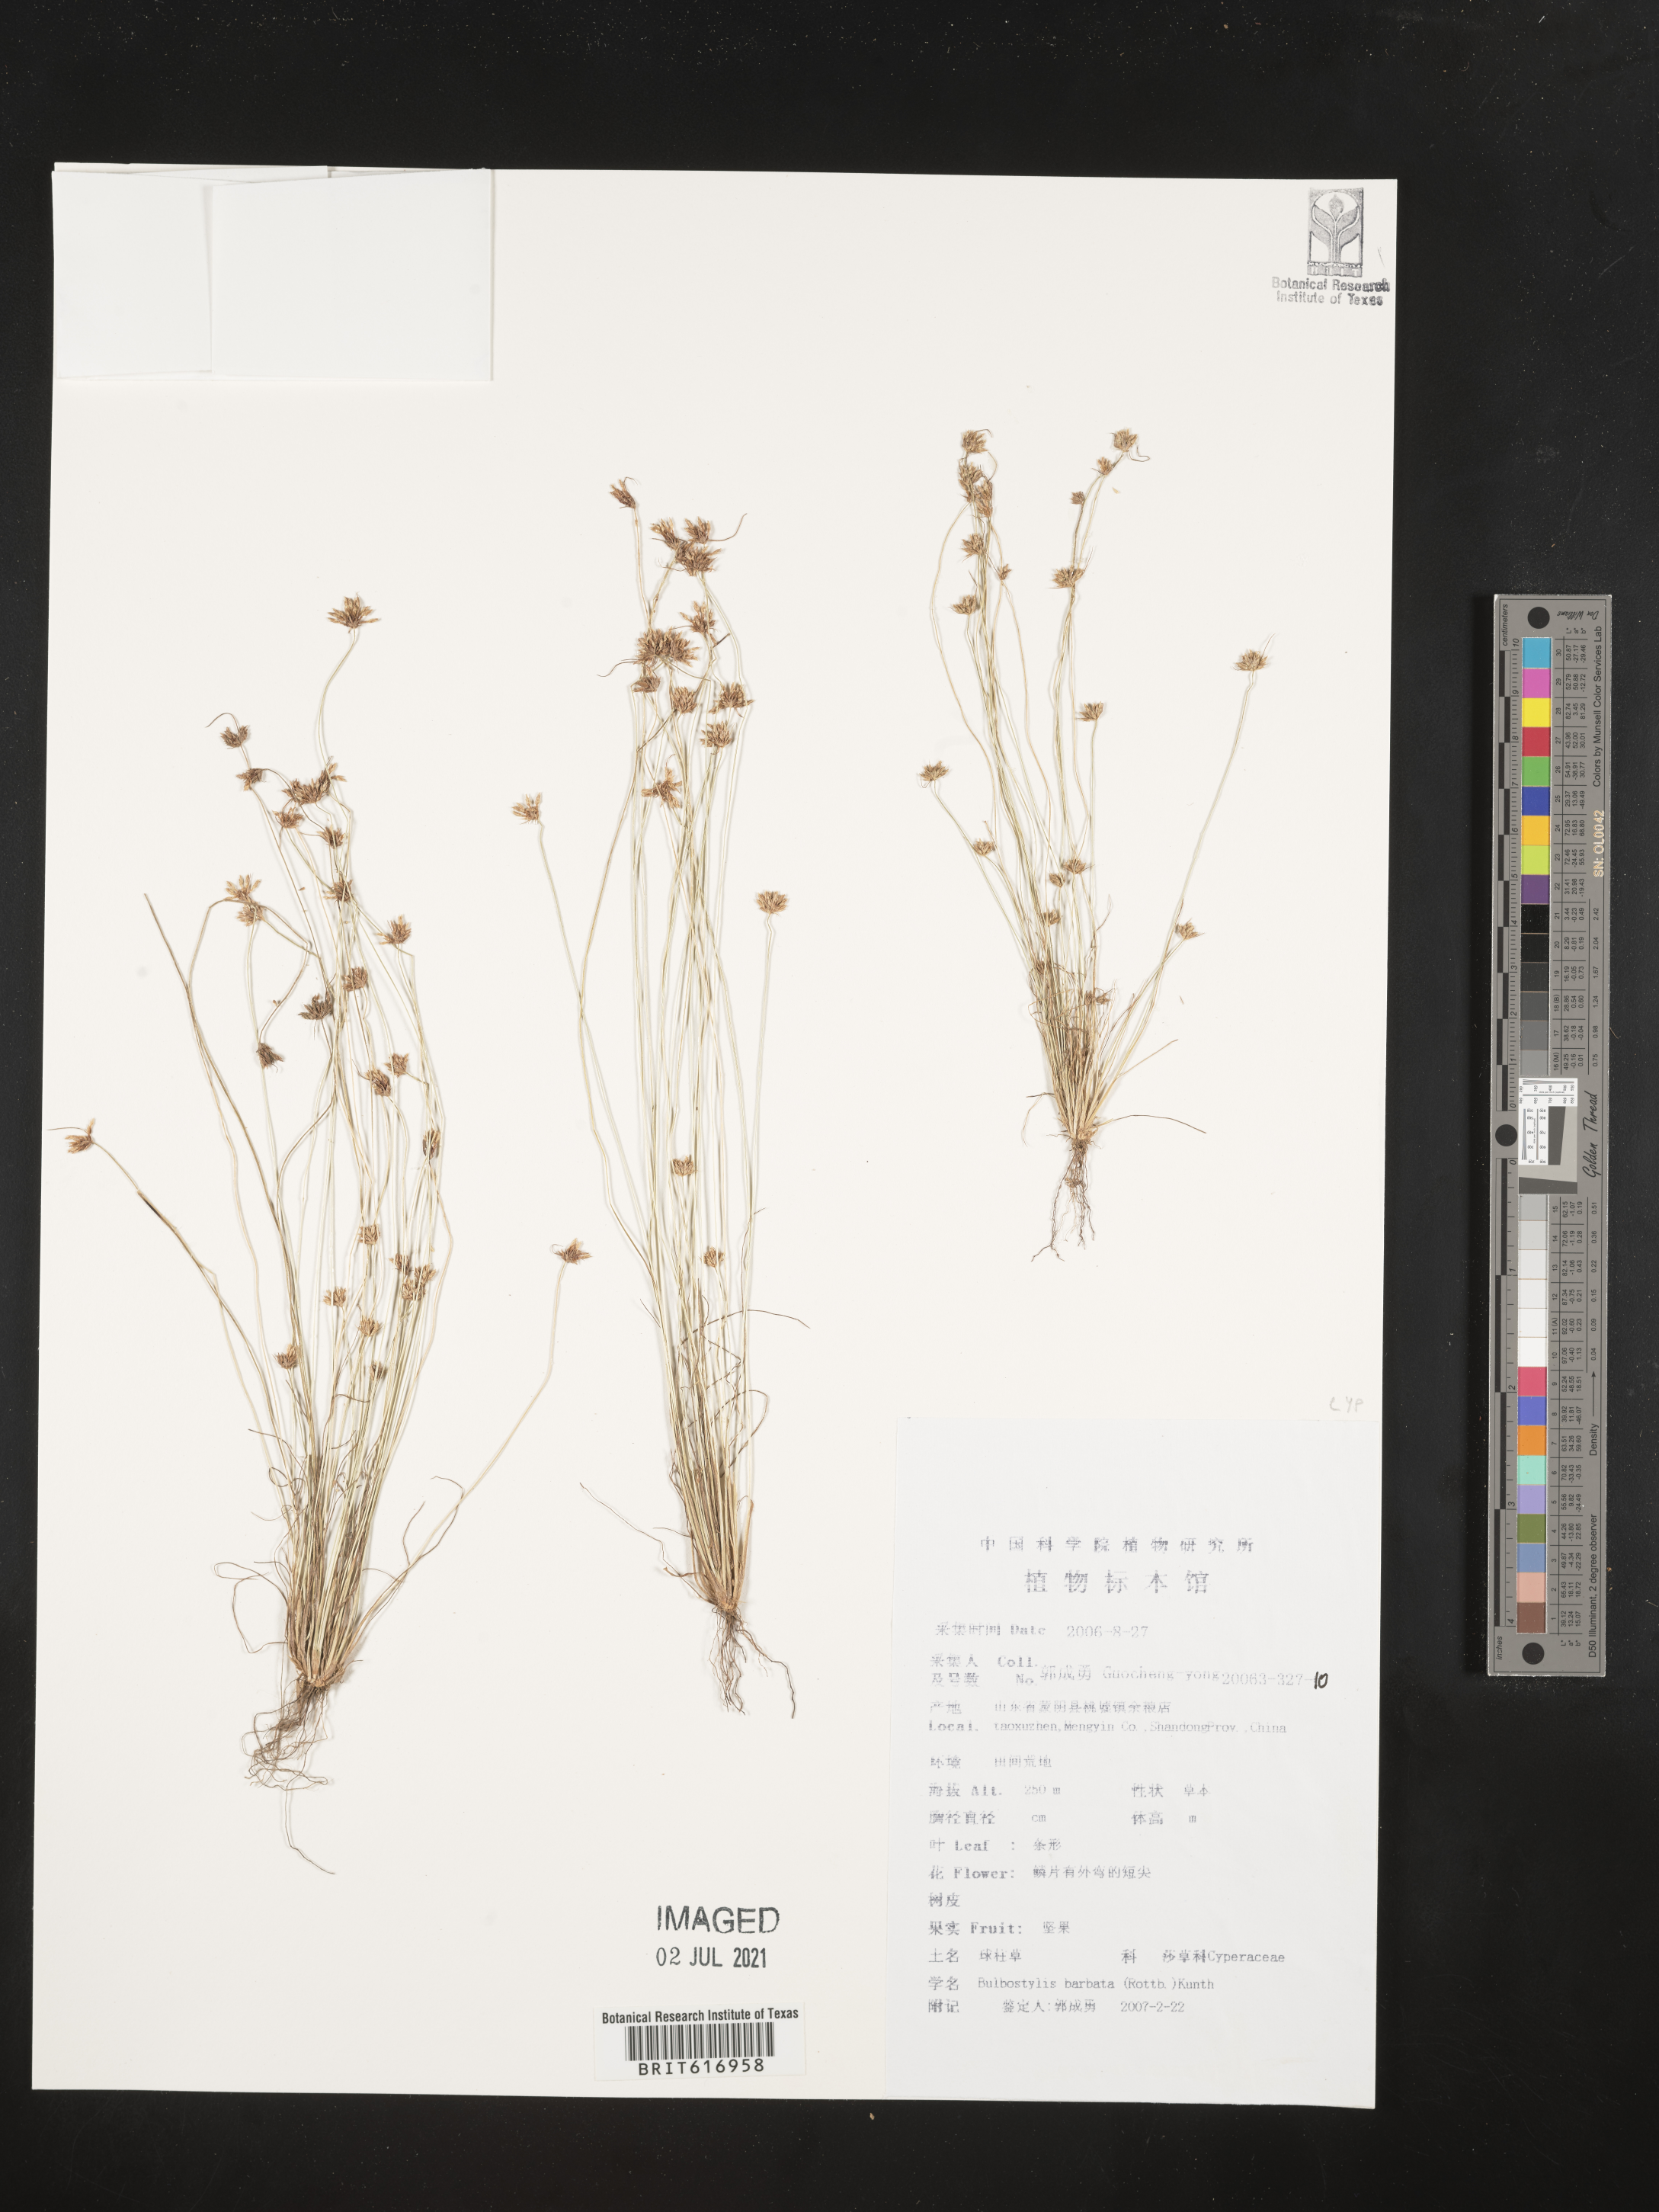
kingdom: Plantae
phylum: Tracheophyta
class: Liliopsida
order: Poales
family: Cyperaceae
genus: Bulbostylis
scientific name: Bulbostylis barbata
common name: Watergrass
